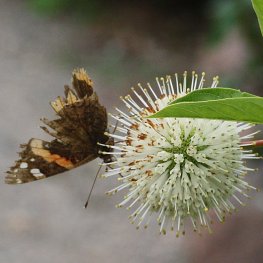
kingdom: Animalia
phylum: Arthropoda
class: Insecta
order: Lepidoptera
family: Nymphalidae
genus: Vanessa
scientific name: Vanessa atalanta
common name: Red Admiral
